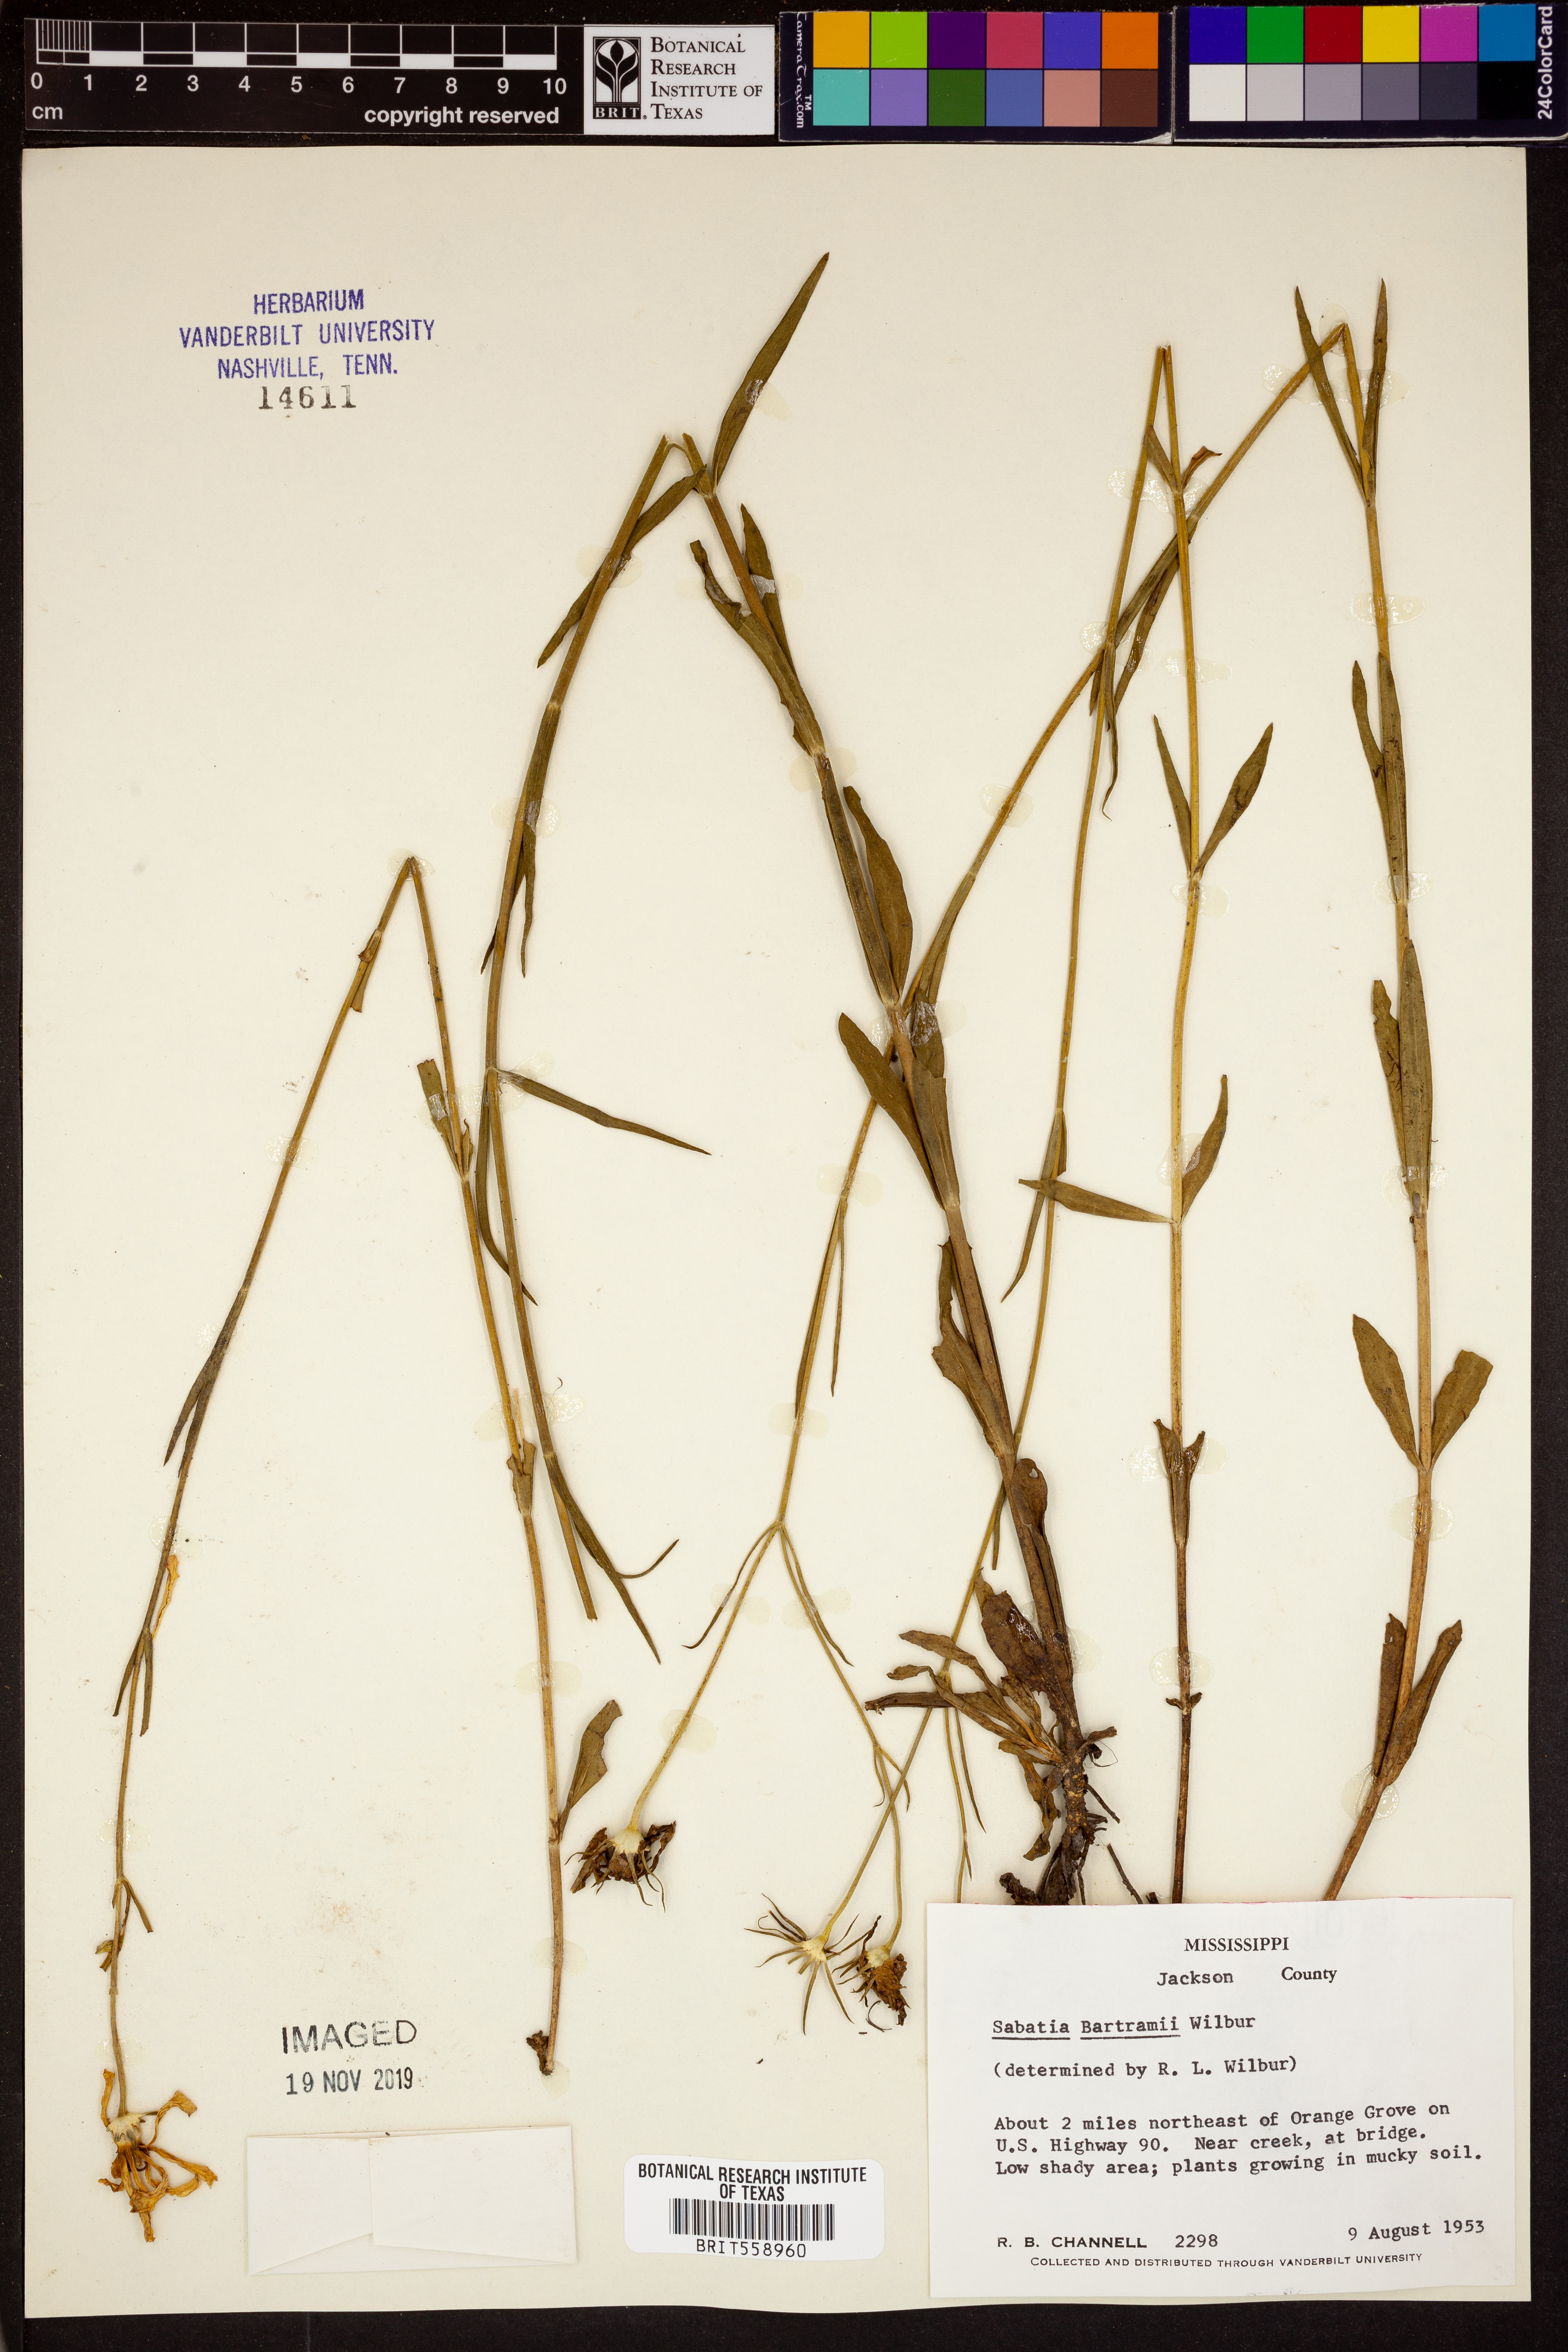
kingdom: Plantae
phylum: Tracheophyta
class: Magnoliopsida
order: Gentianales
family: Gentianaceae
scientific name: Gentianaceae
